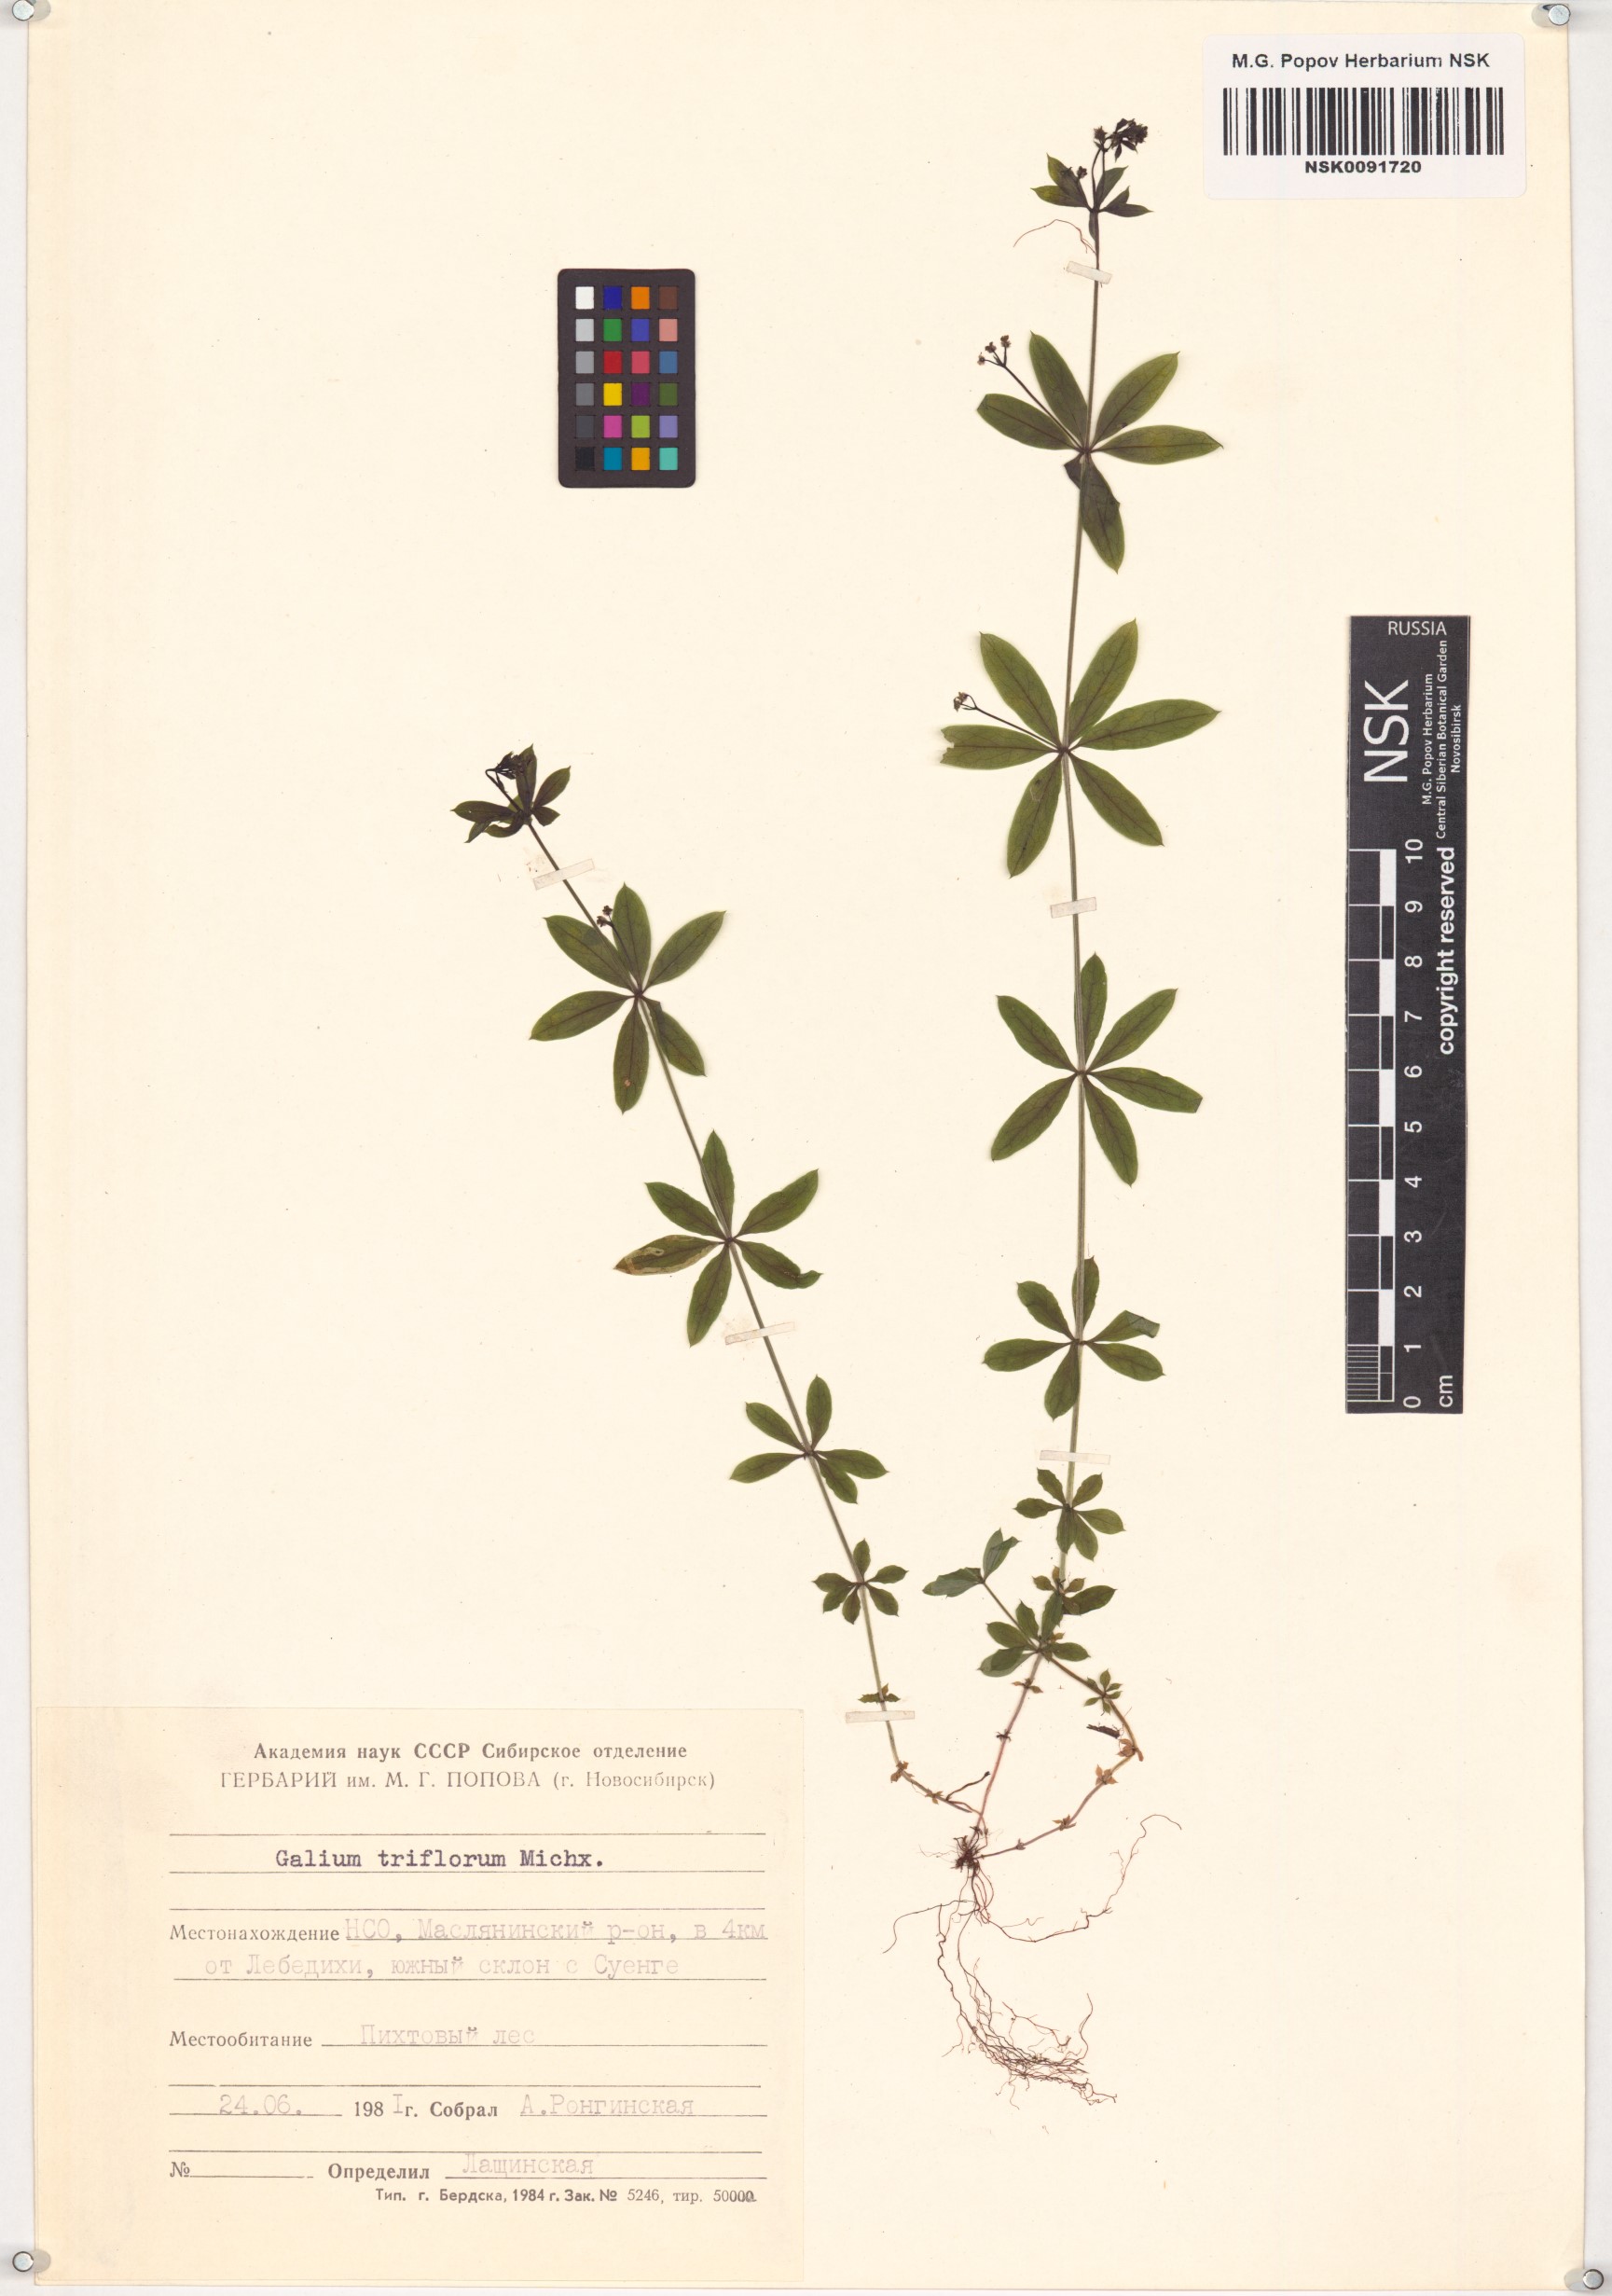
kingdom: Plantae
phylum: Tracheophyta
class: Magnoliopsida
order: Gentianales
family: Rubiaceae
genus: Galium
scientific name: Galium triflorum
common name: Fragrant bedstraw
